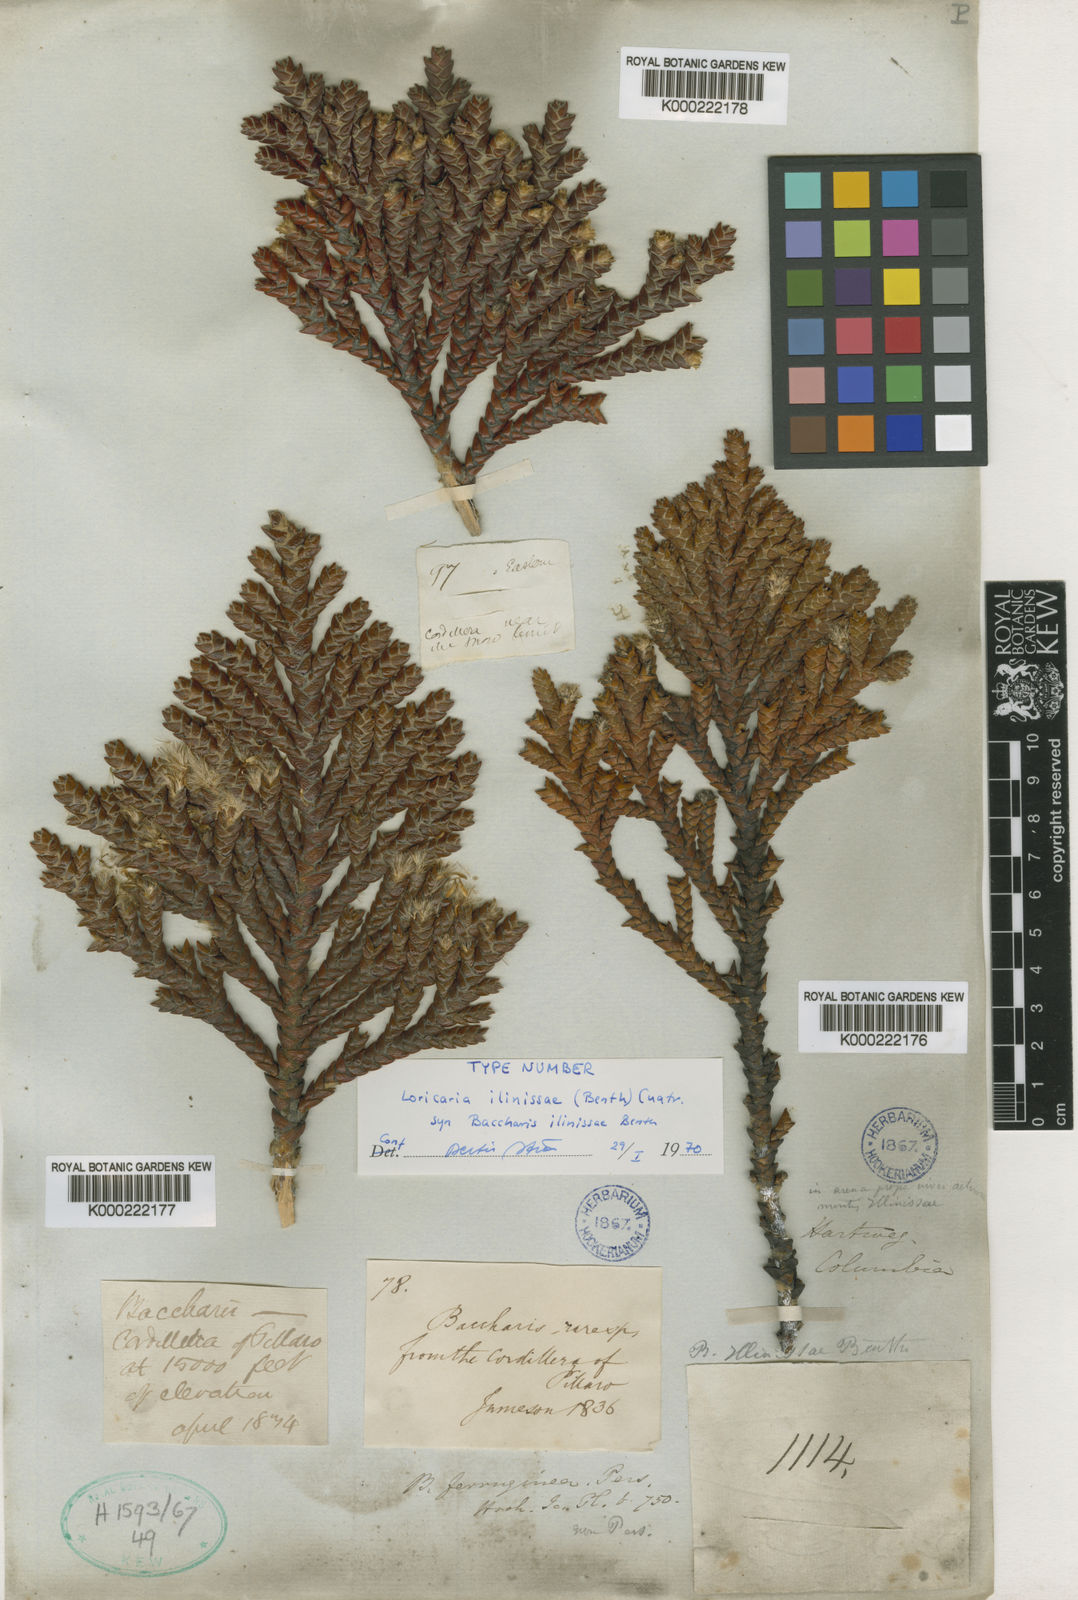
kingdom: Plantae
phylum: Tracheophyta
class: Magnoliopsida
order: Asterales
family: Asteraceae
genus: Andicolea
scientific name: Andicolea ilinissae
